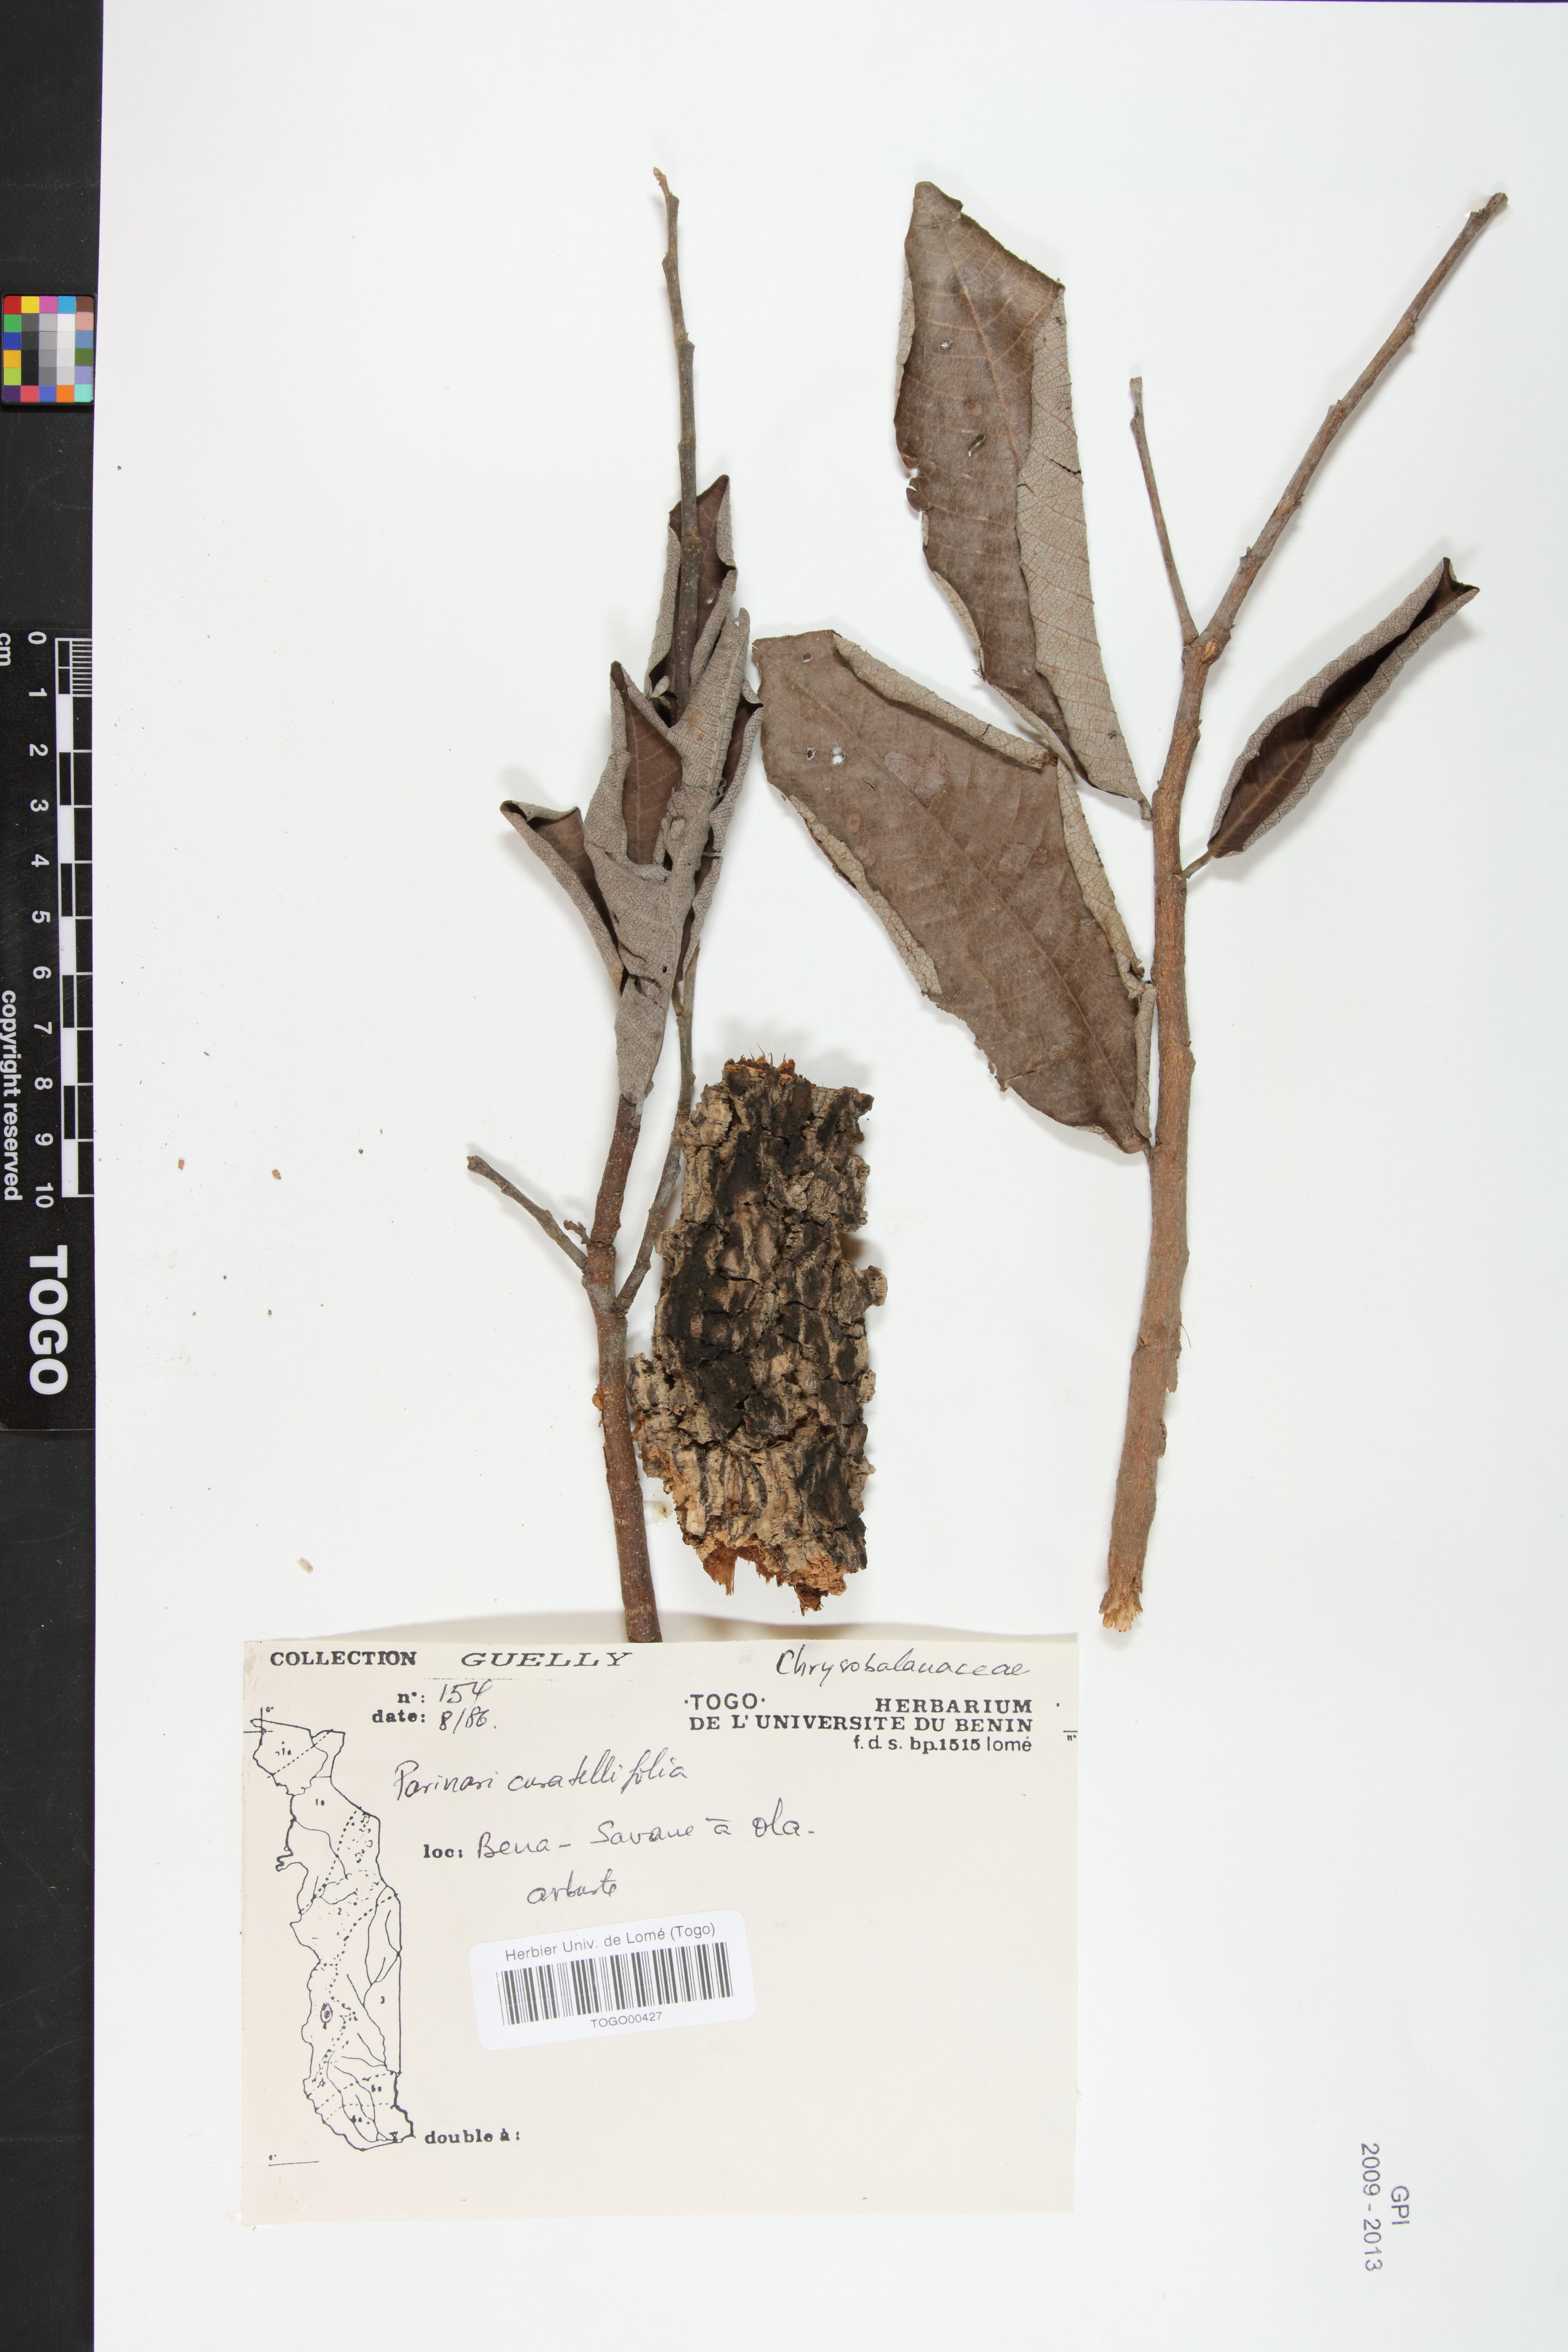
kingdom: Plantae
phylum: Tracheophyta
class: Magnoliopsida
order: Malpighiales
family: Chrysobalanaceae
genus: Parinari
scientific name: Parinari curatellifolia
